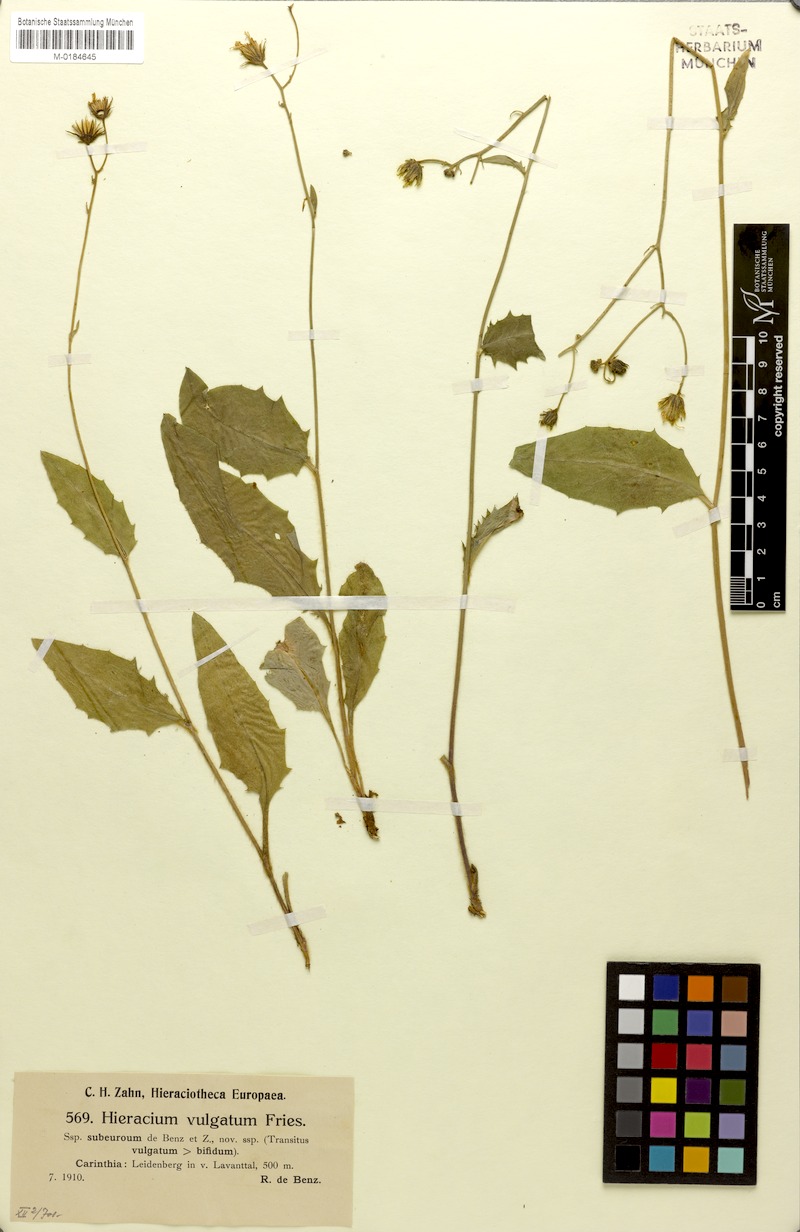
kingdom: Plantae
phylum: Tracheophyta
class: Magnoliopsida
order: Asterales
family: Asteraceae
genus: Hieracium
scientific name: Hieracium lachenalii
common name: Common hawkweed
